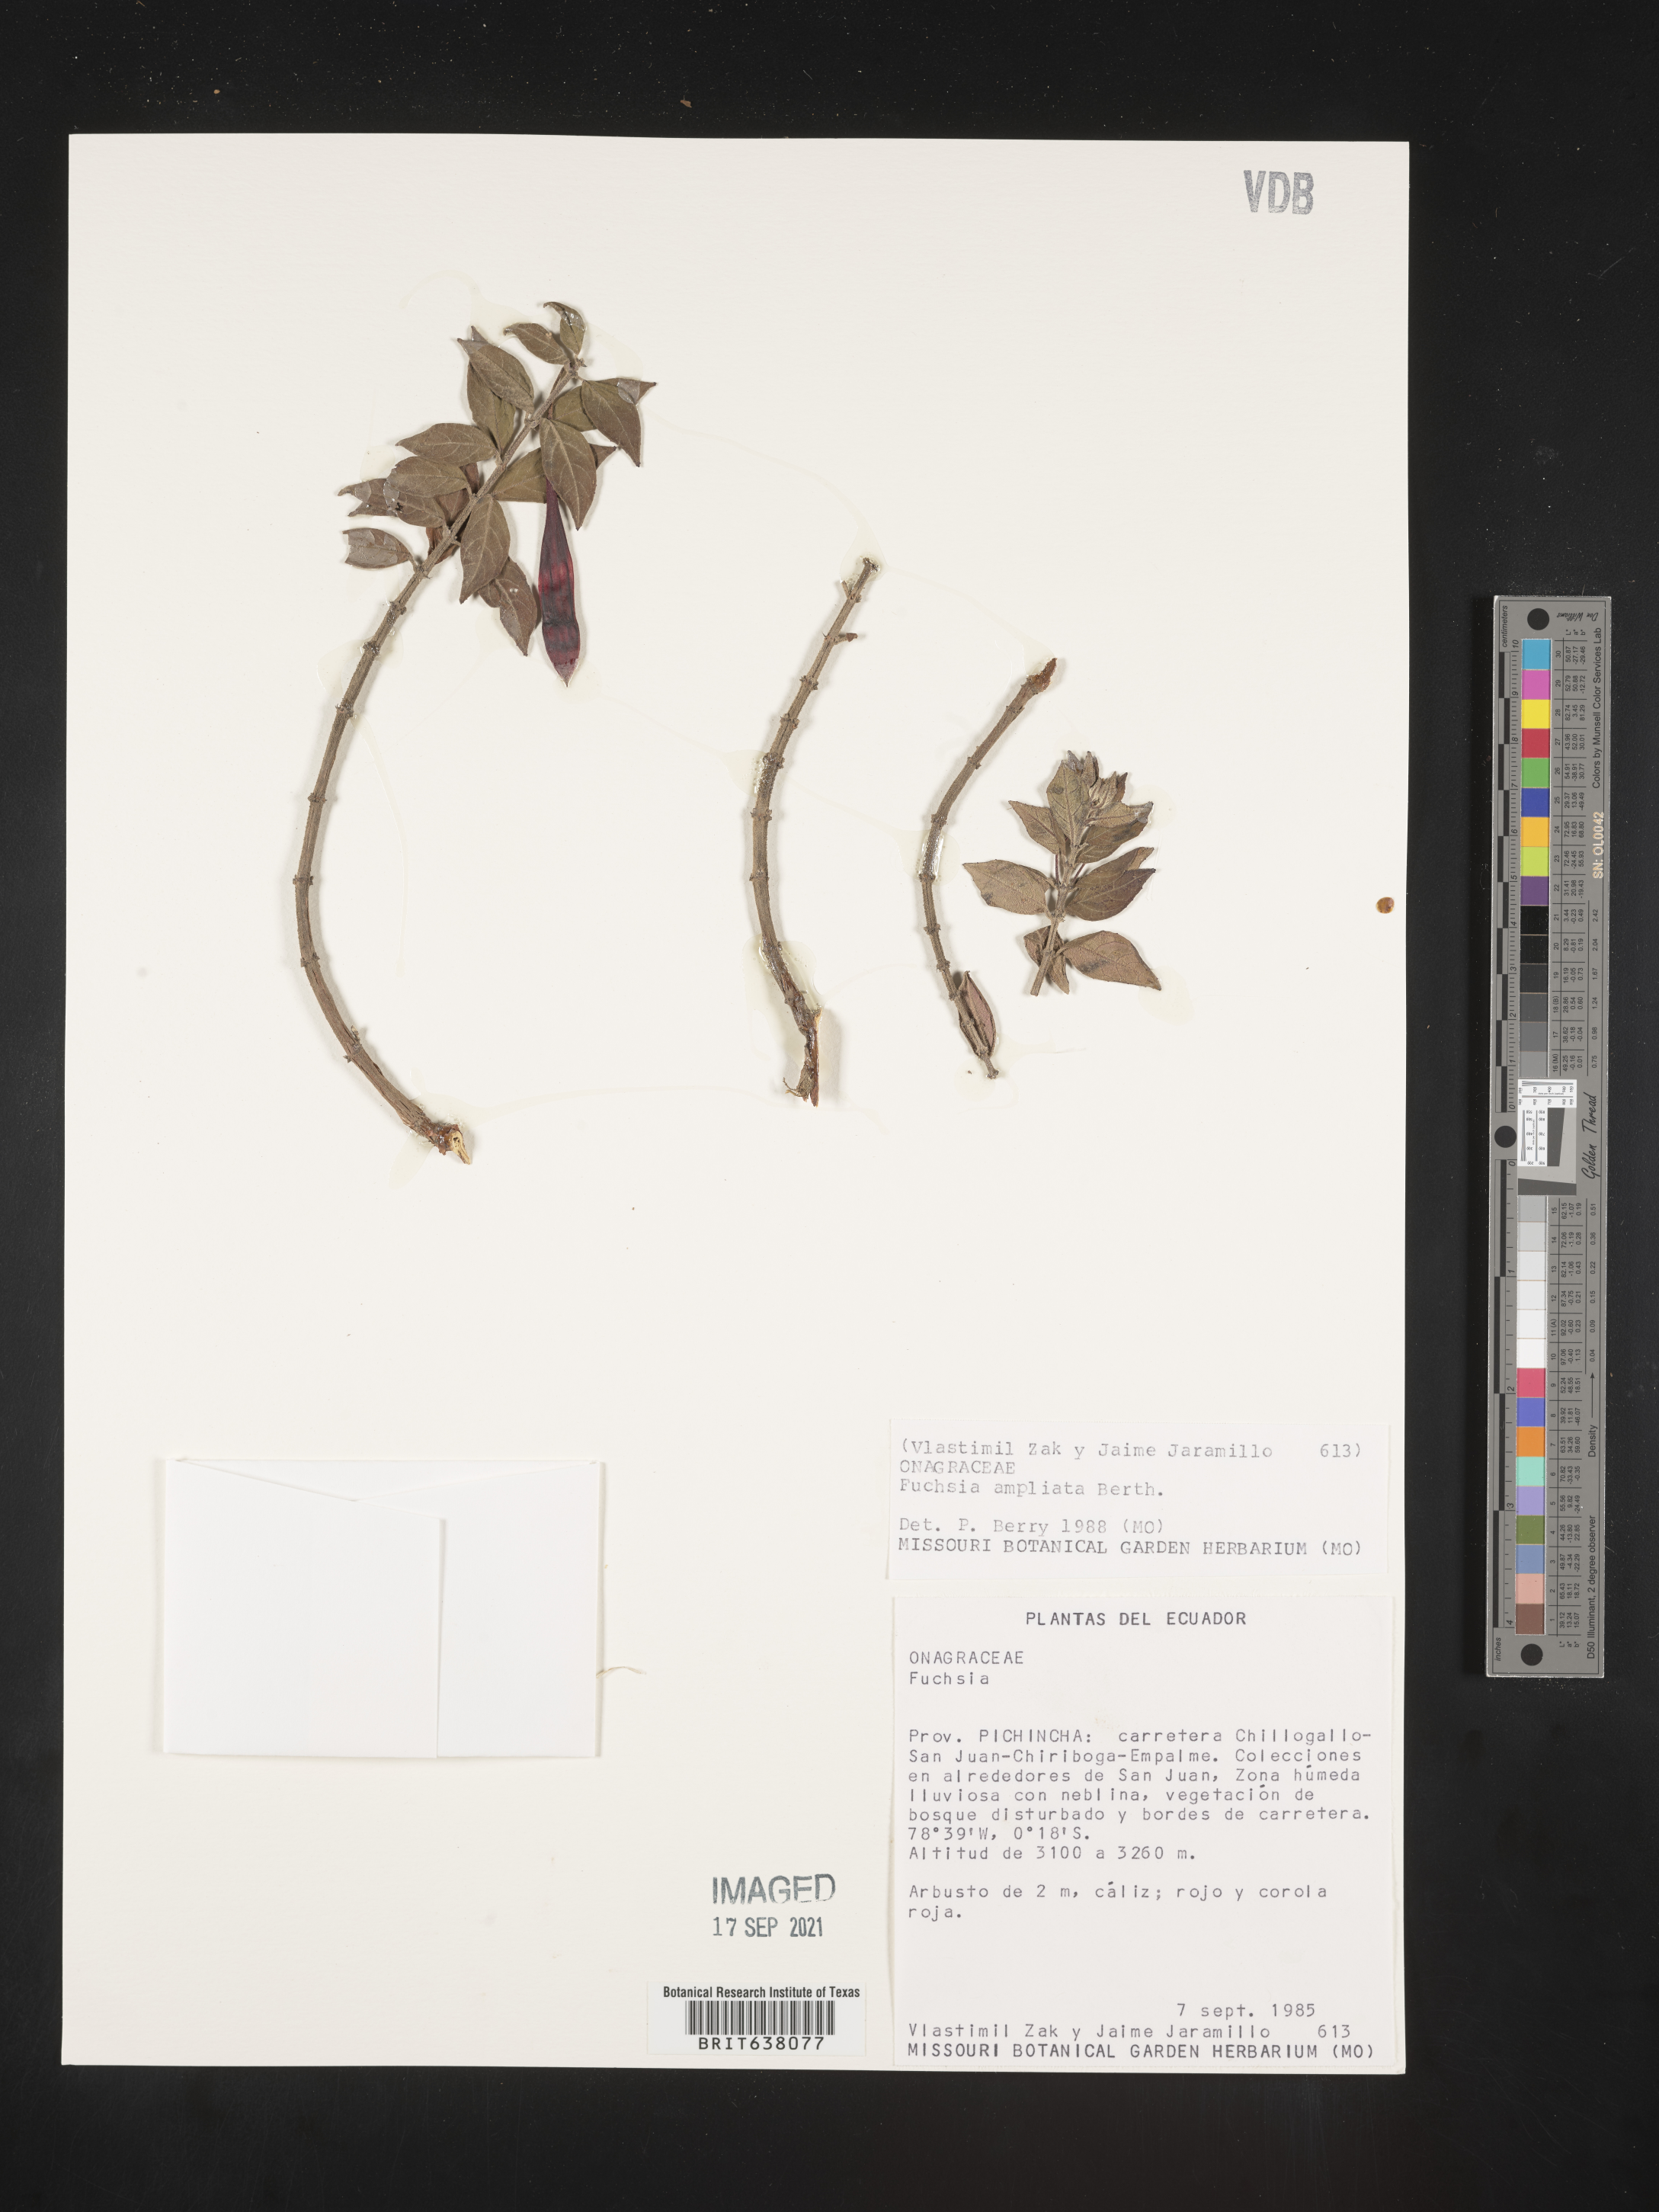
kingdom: Plantae
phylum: Tracheophyta
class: Magnoliopsida
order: Myrtales
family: Onagraceae
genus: Fuchsia
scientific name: Fuchsia
